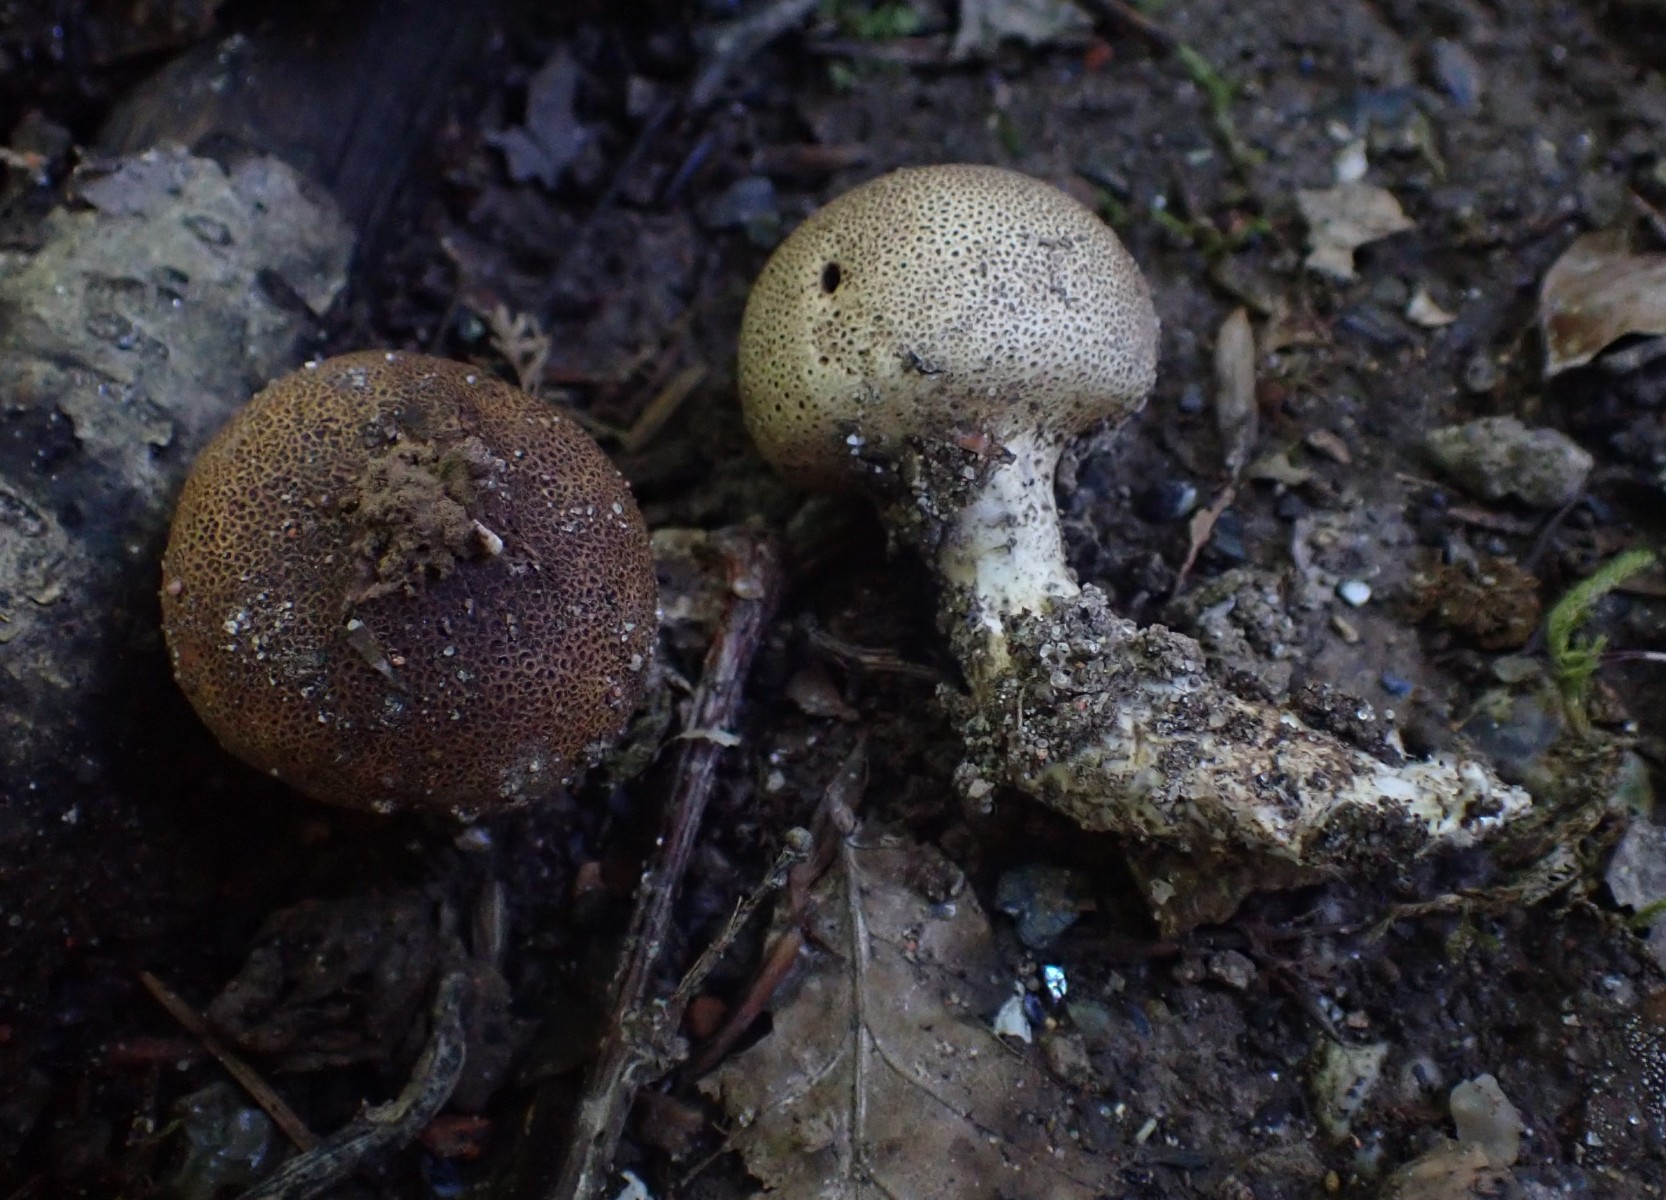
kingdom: Fungi
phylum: Basidiomycota
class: Agaricomycetes
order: Boletales
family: Sclerodermataceae
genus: Scleroderma
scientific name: Scleroderma verrucosum
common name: stilket bruskbold
